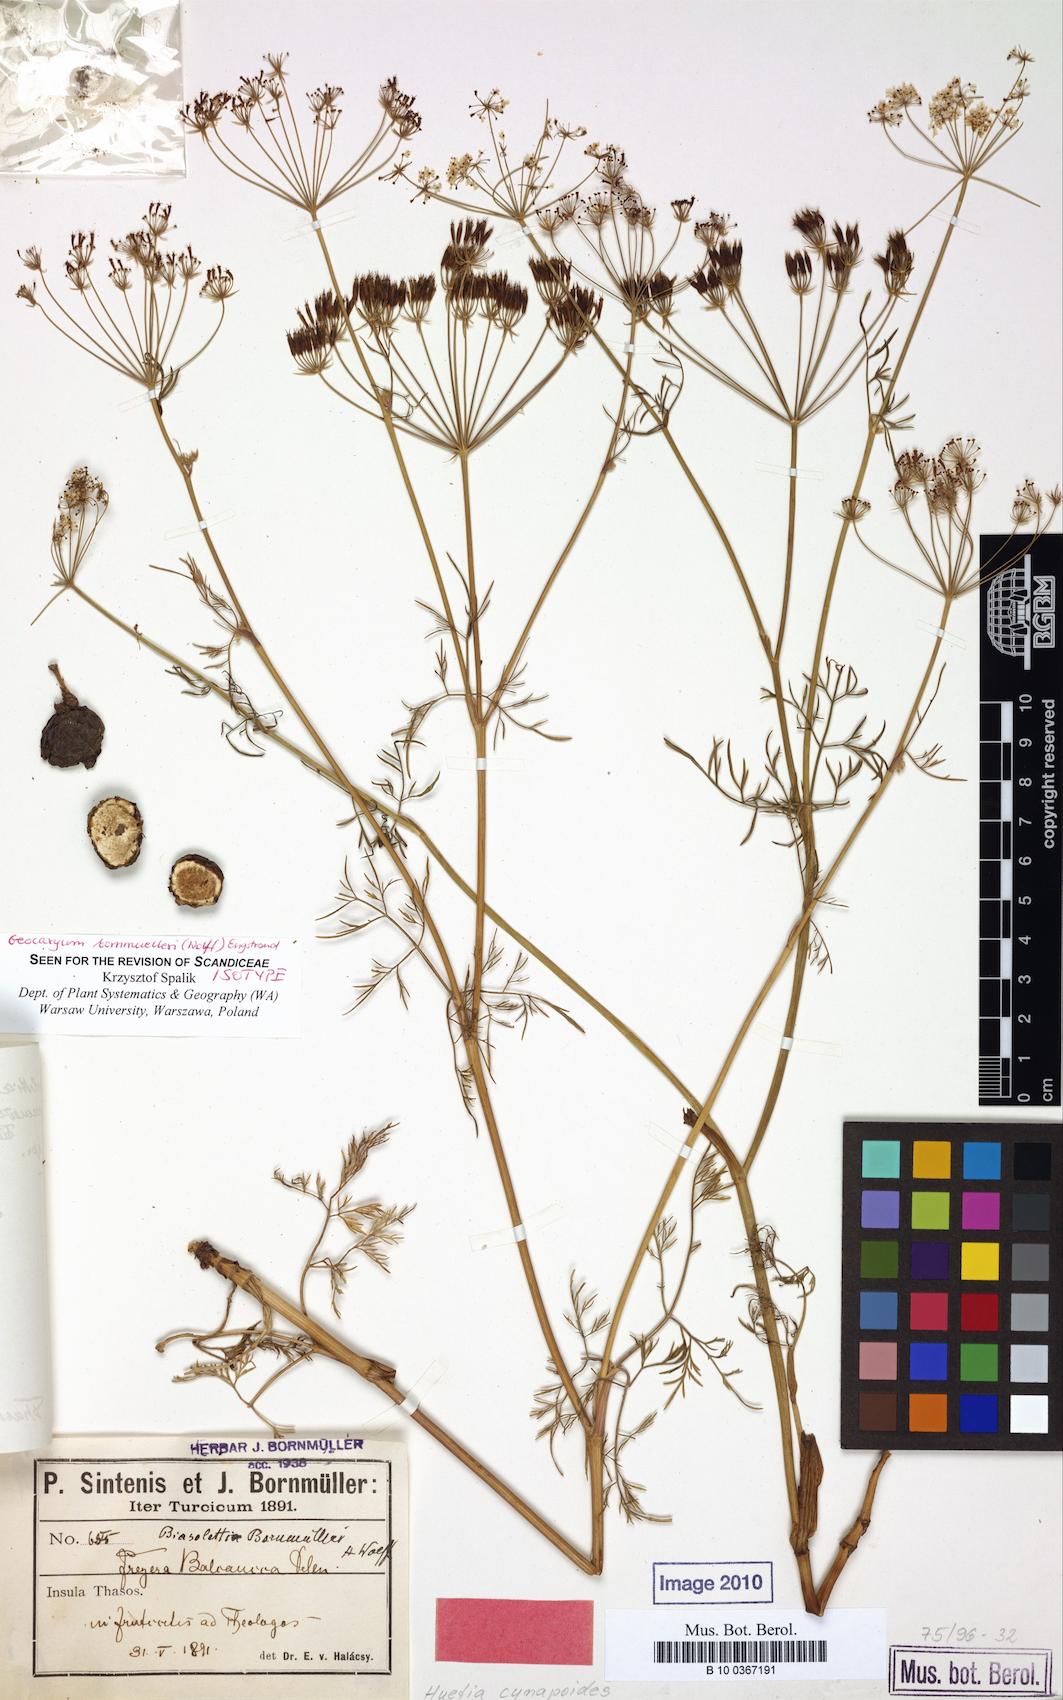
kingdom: Plantae
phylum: Tracheophyta
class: Magnoliopsida
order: Apiales
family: Apiaceae
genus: Geocaryum
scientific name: Geocaryum bornmuelleri
